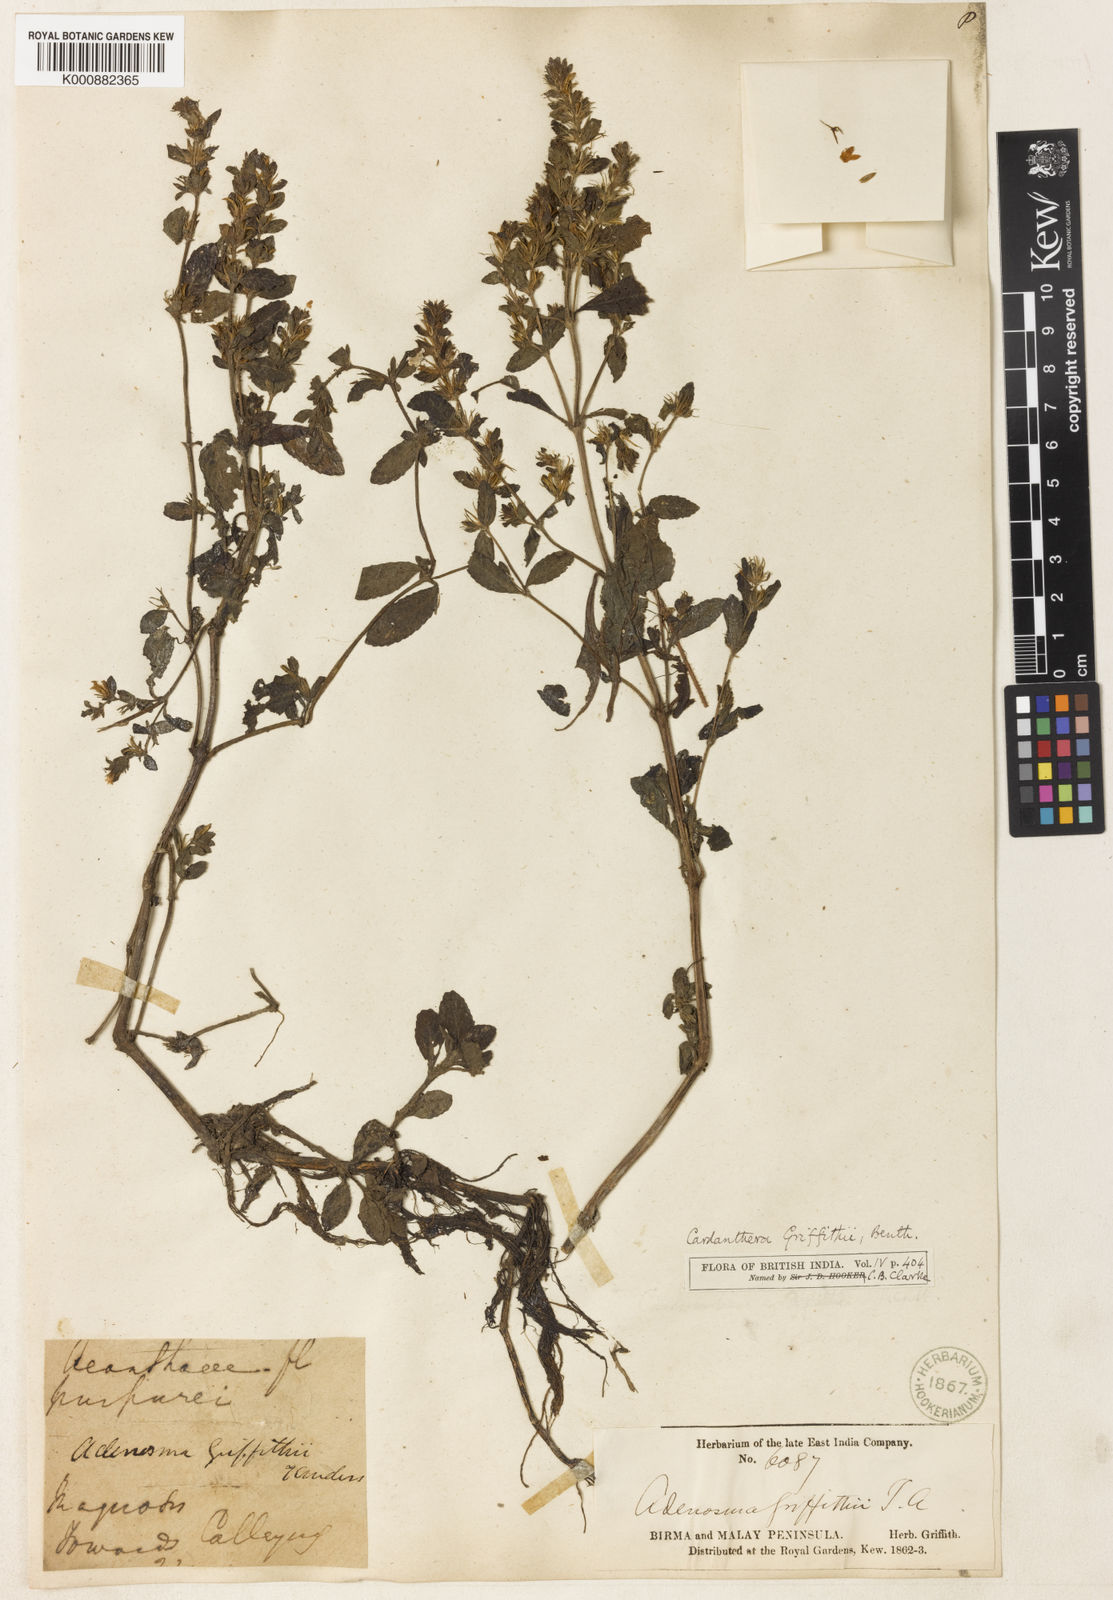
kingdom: Plantae
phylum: Tracheophyta
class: Magnoliopsida
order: Lamiales
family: Acanthaceae
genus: Hygrophila
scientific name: Hygrophila griffithii
